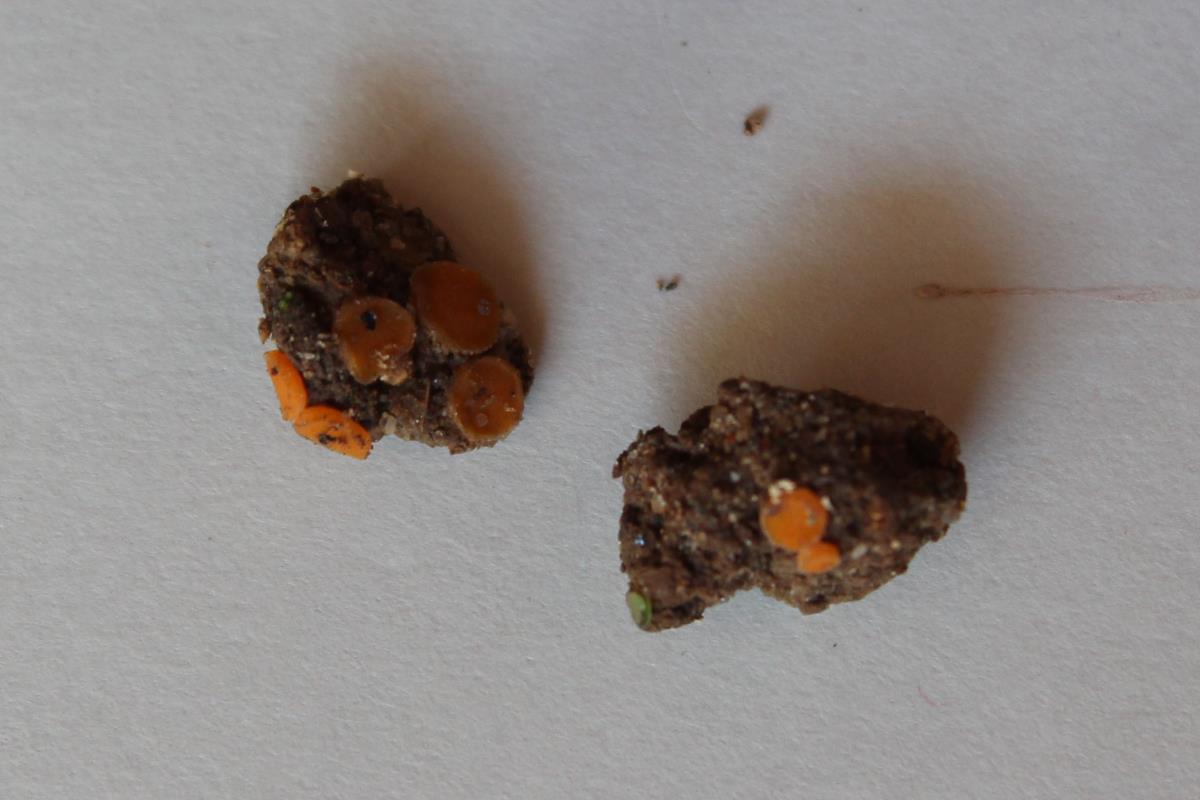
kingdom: Fungi
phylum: Ascomycota
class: Pezizomycetes
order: Pezizales
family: Pulvinulaceae
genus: Pulvinula
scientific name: Pulvinula miltina
